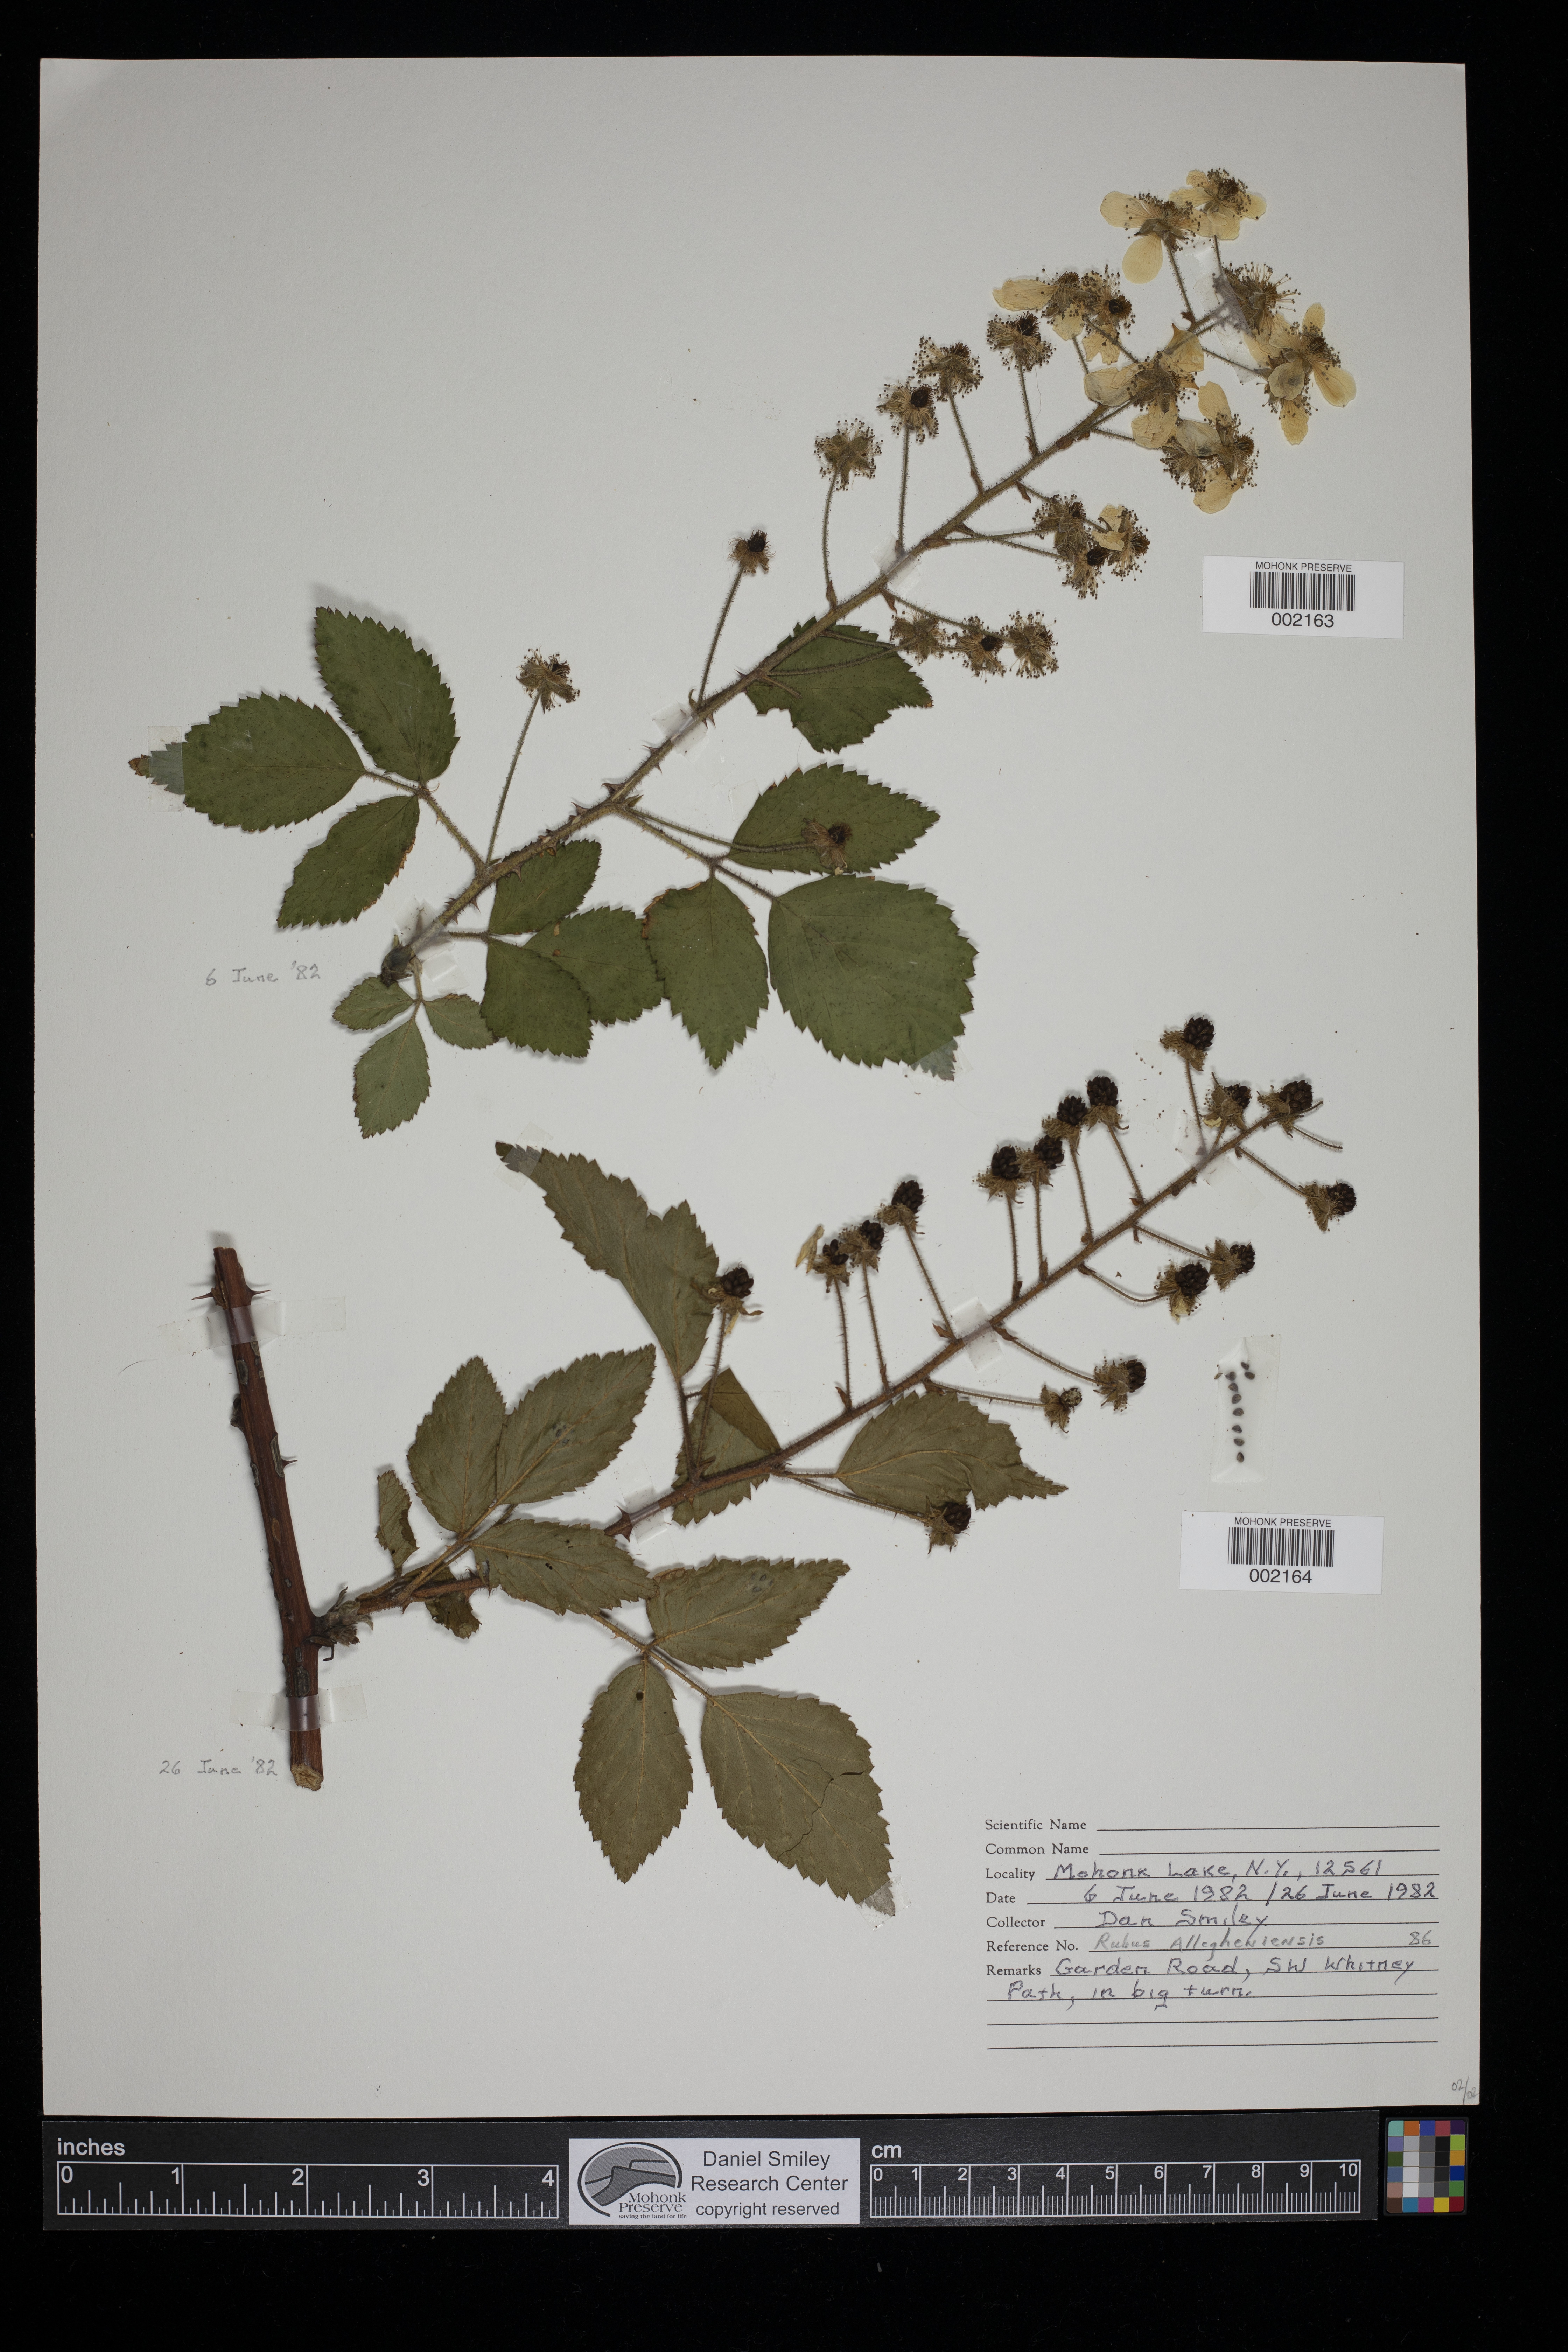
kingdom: Plantae
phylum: Tracheophyta
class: Magnoliopsida
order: Rosales
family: Rosaceae
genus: Rubus
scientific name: Rubus allegheniensis
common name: Allegheny blackberry
